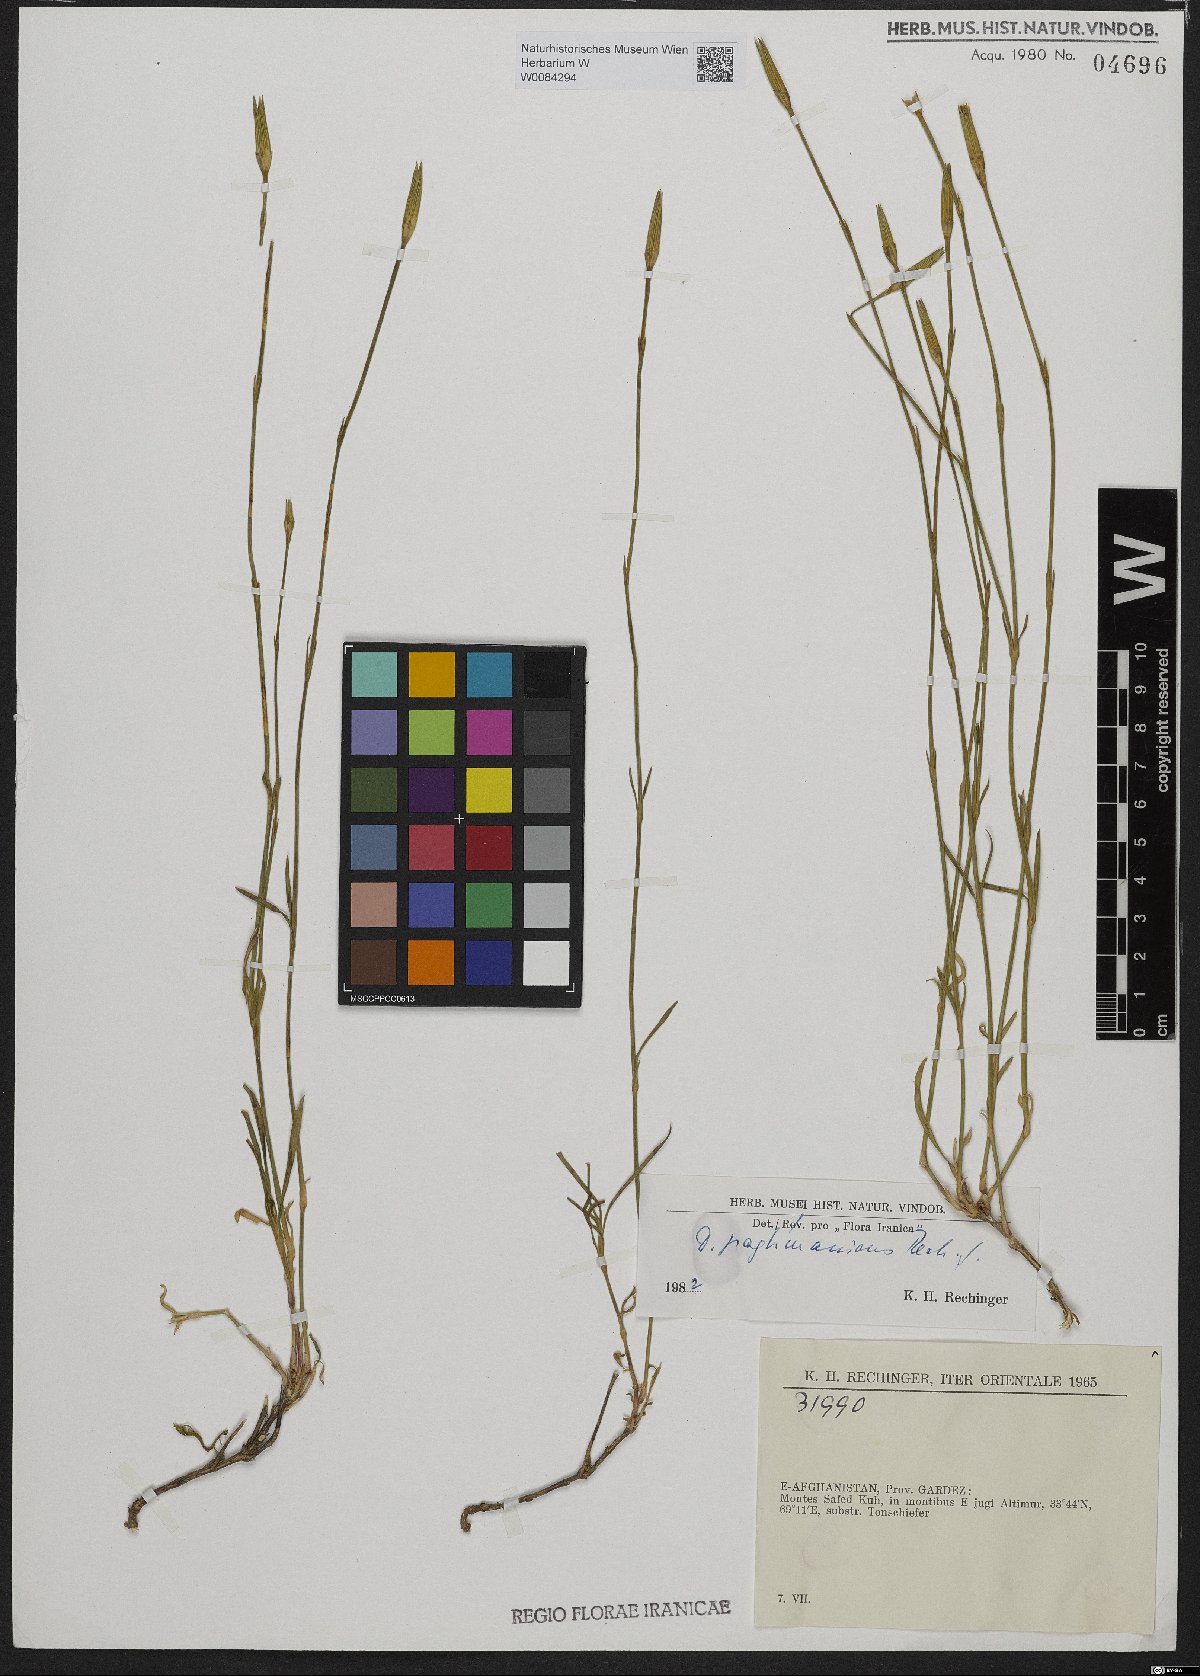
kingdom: Plantae
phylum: Tracheophyta
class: Magnoliopsida
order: Caryophyllales
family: Caryophyllaceae
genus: Dianthus
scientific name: Dianthus paghmanicus
